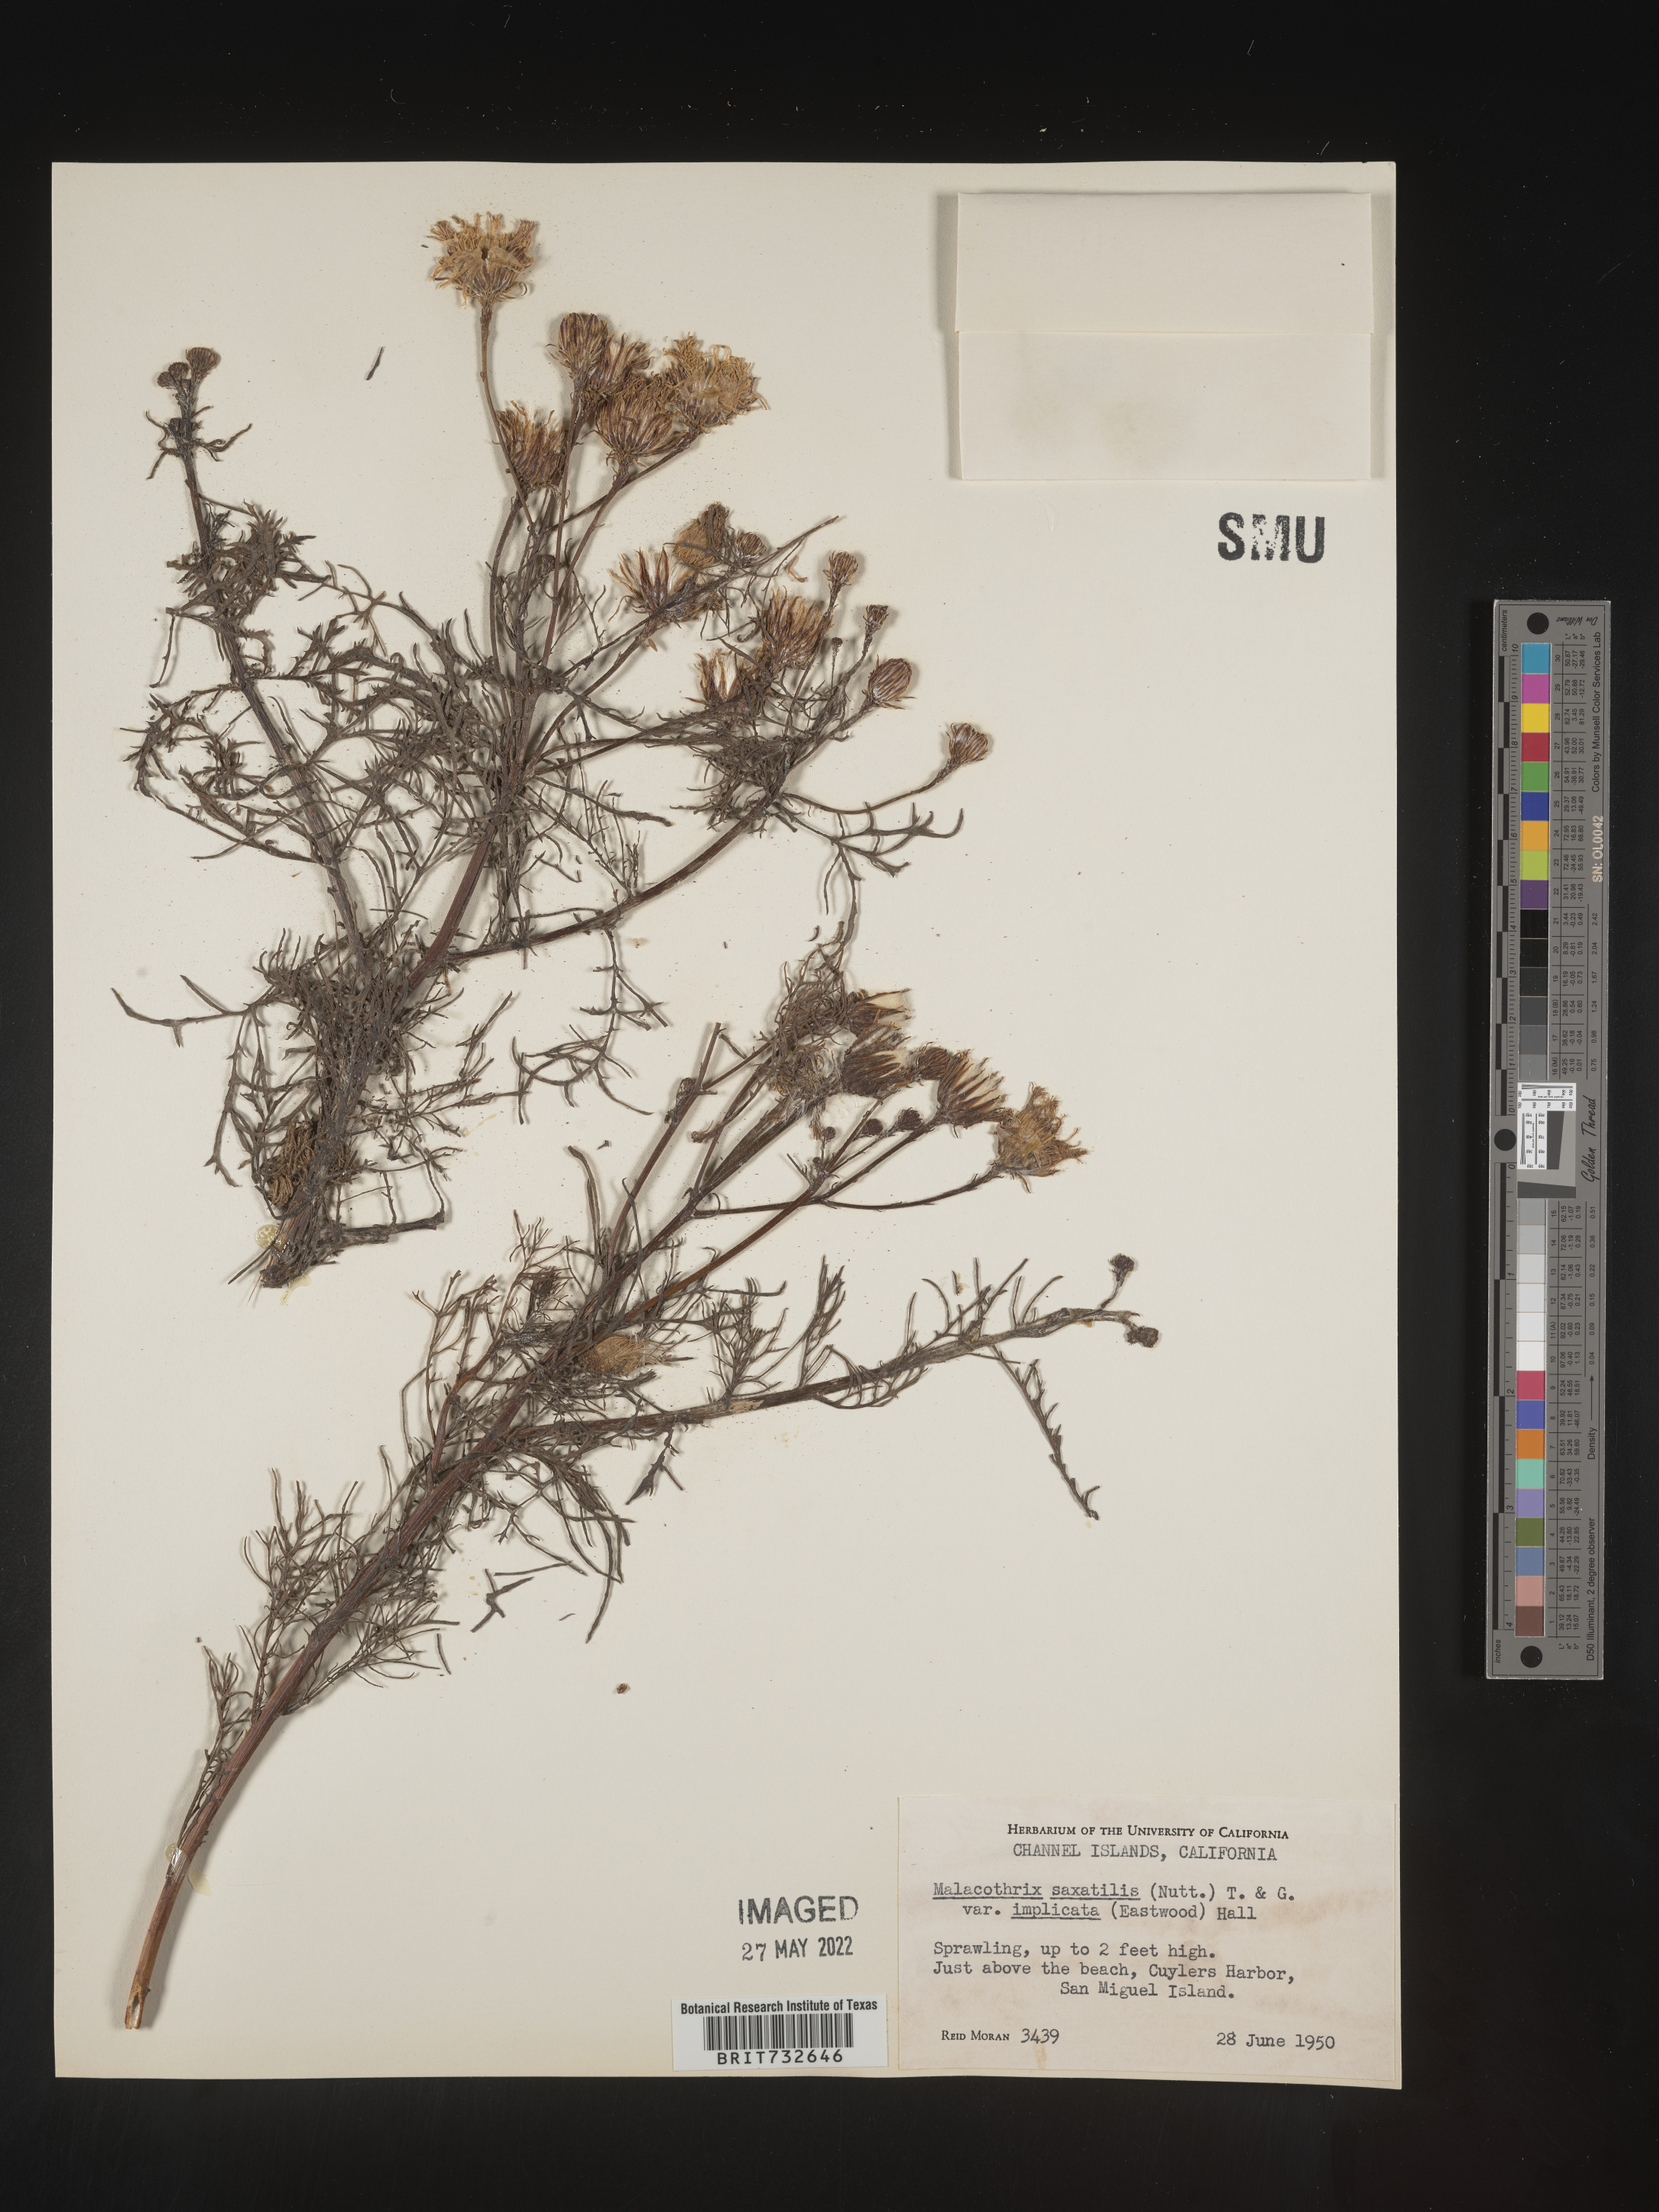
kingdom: Plantae
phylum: Tracheophyta
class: Magnoliopsida
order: Asterales
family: Asteraceae
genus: Malacothrix
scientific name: Malacothrix saxatilis
